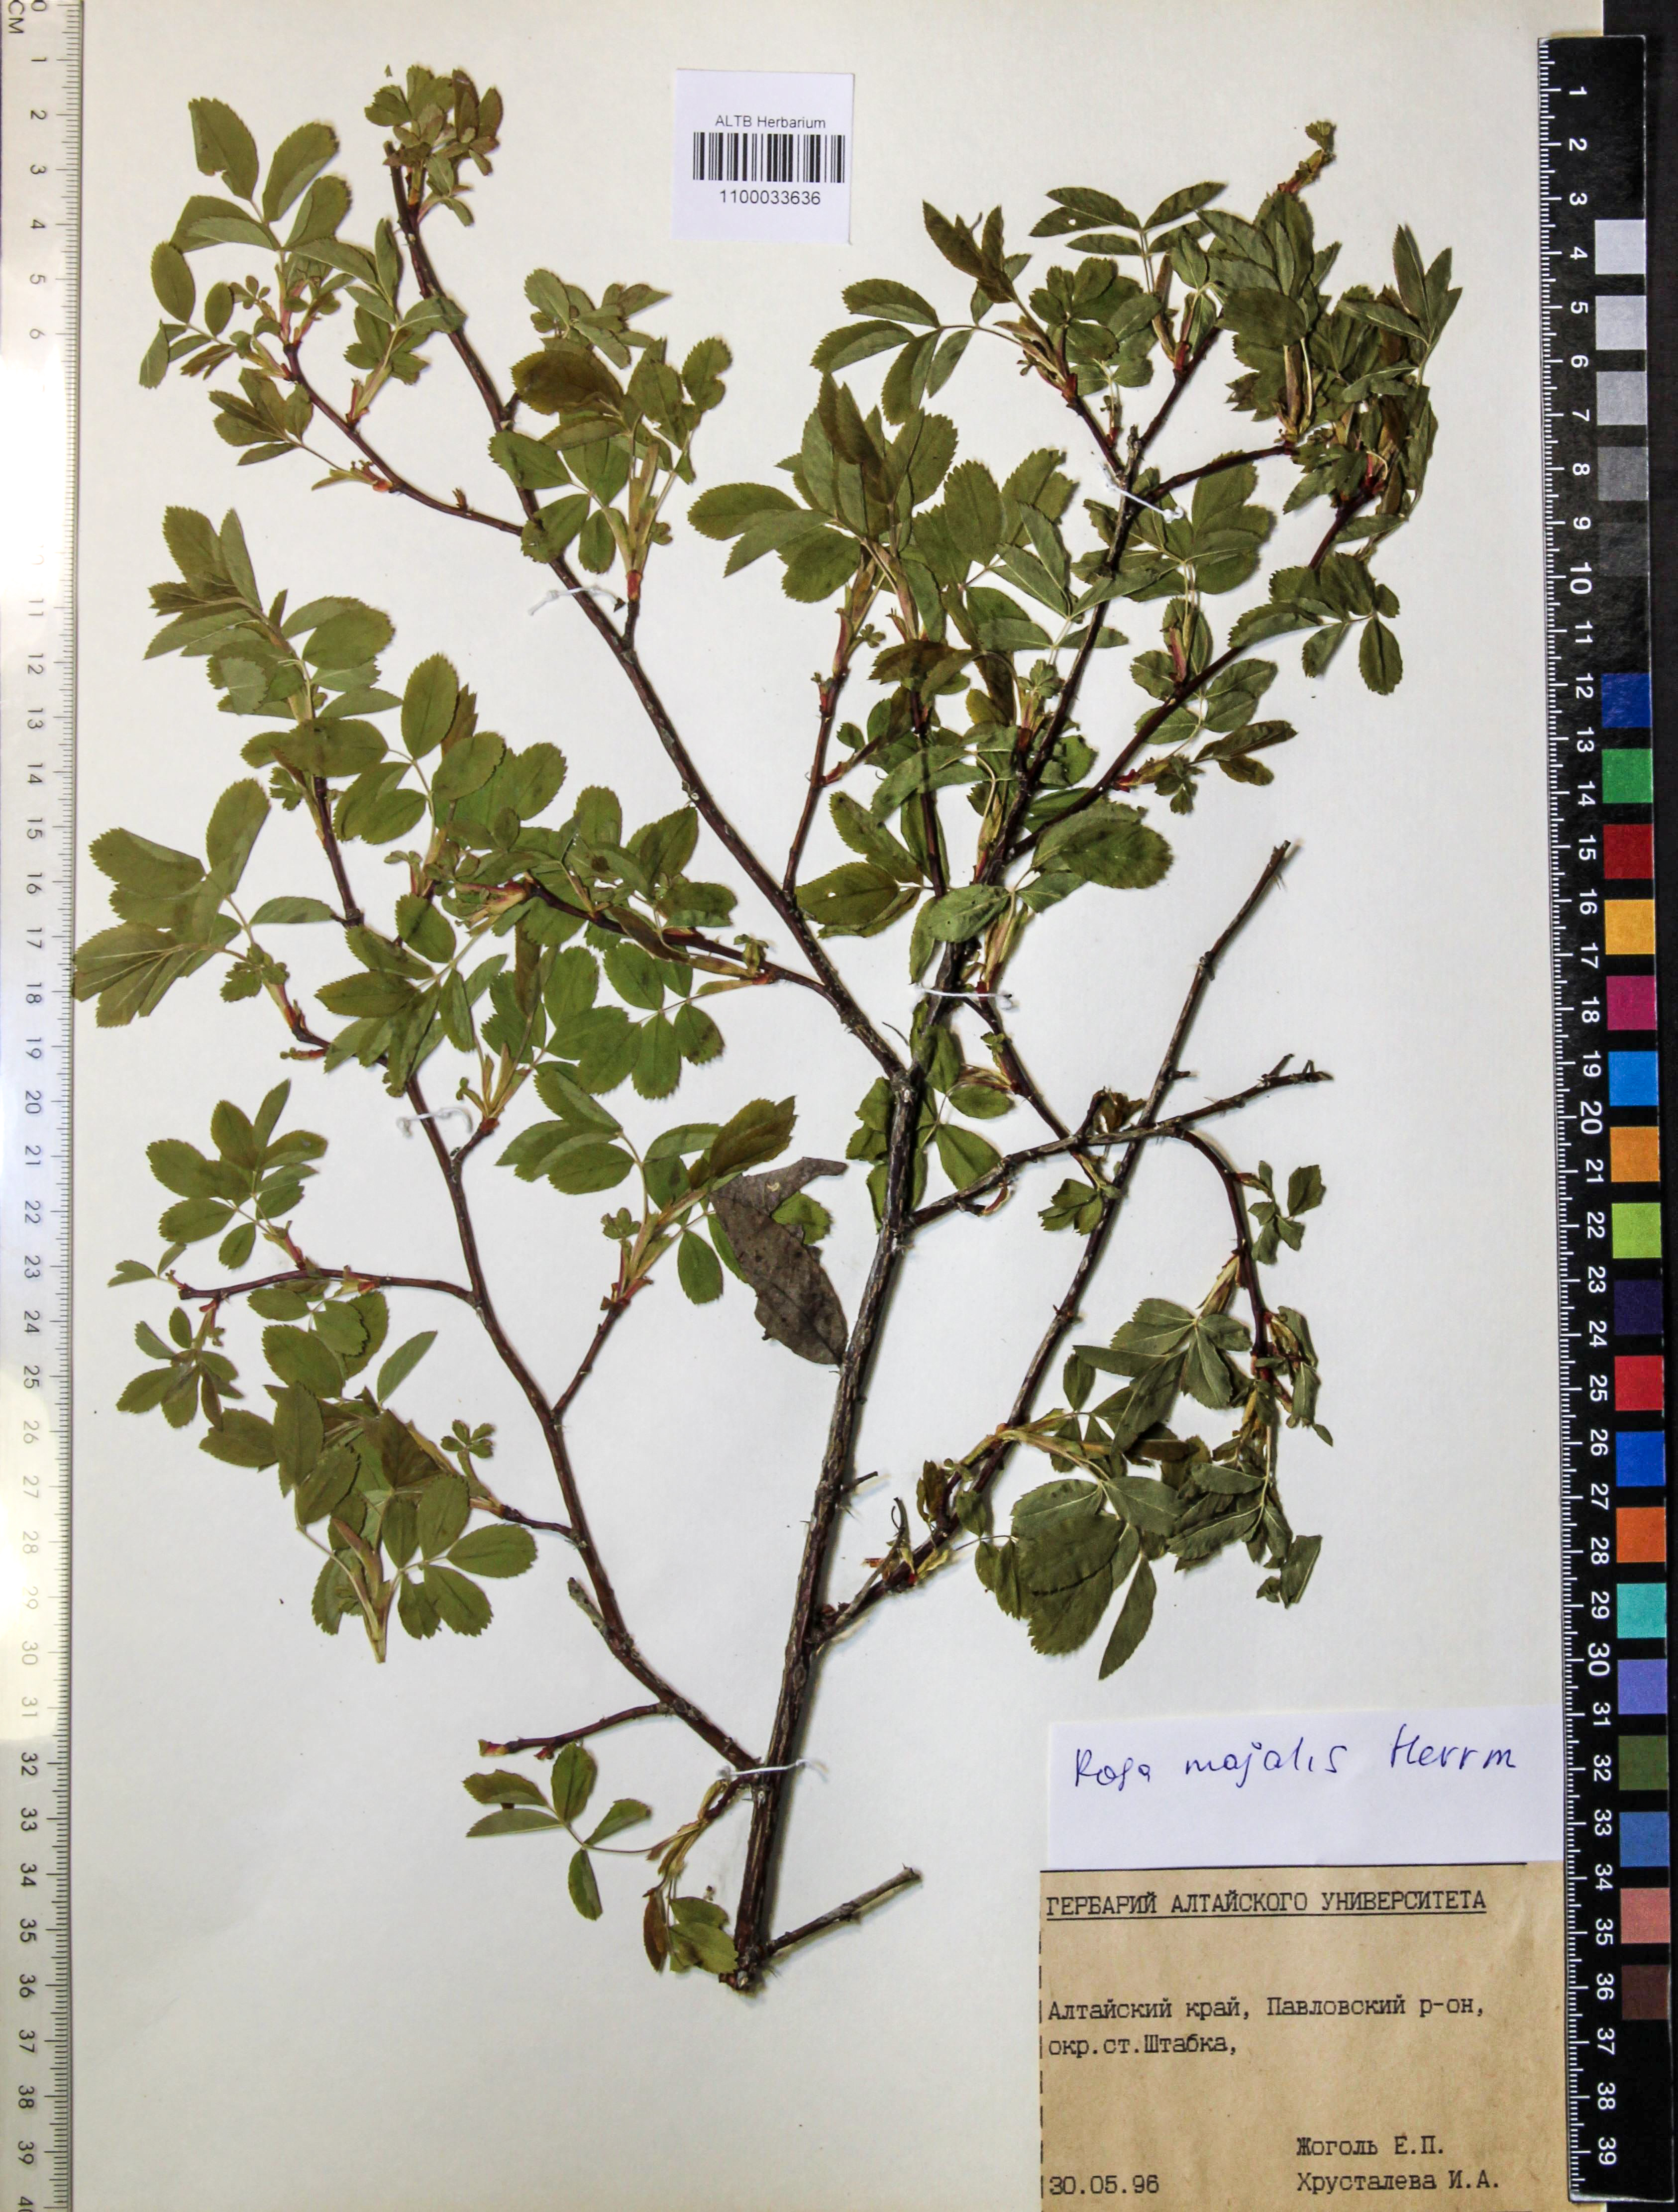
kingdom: Plantae
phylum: Tracheophyta
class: Magnoliopsida
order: Rosales
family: Rosaceae
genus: Rosa
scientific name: Rosa majalis
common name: Cinnamon rose
